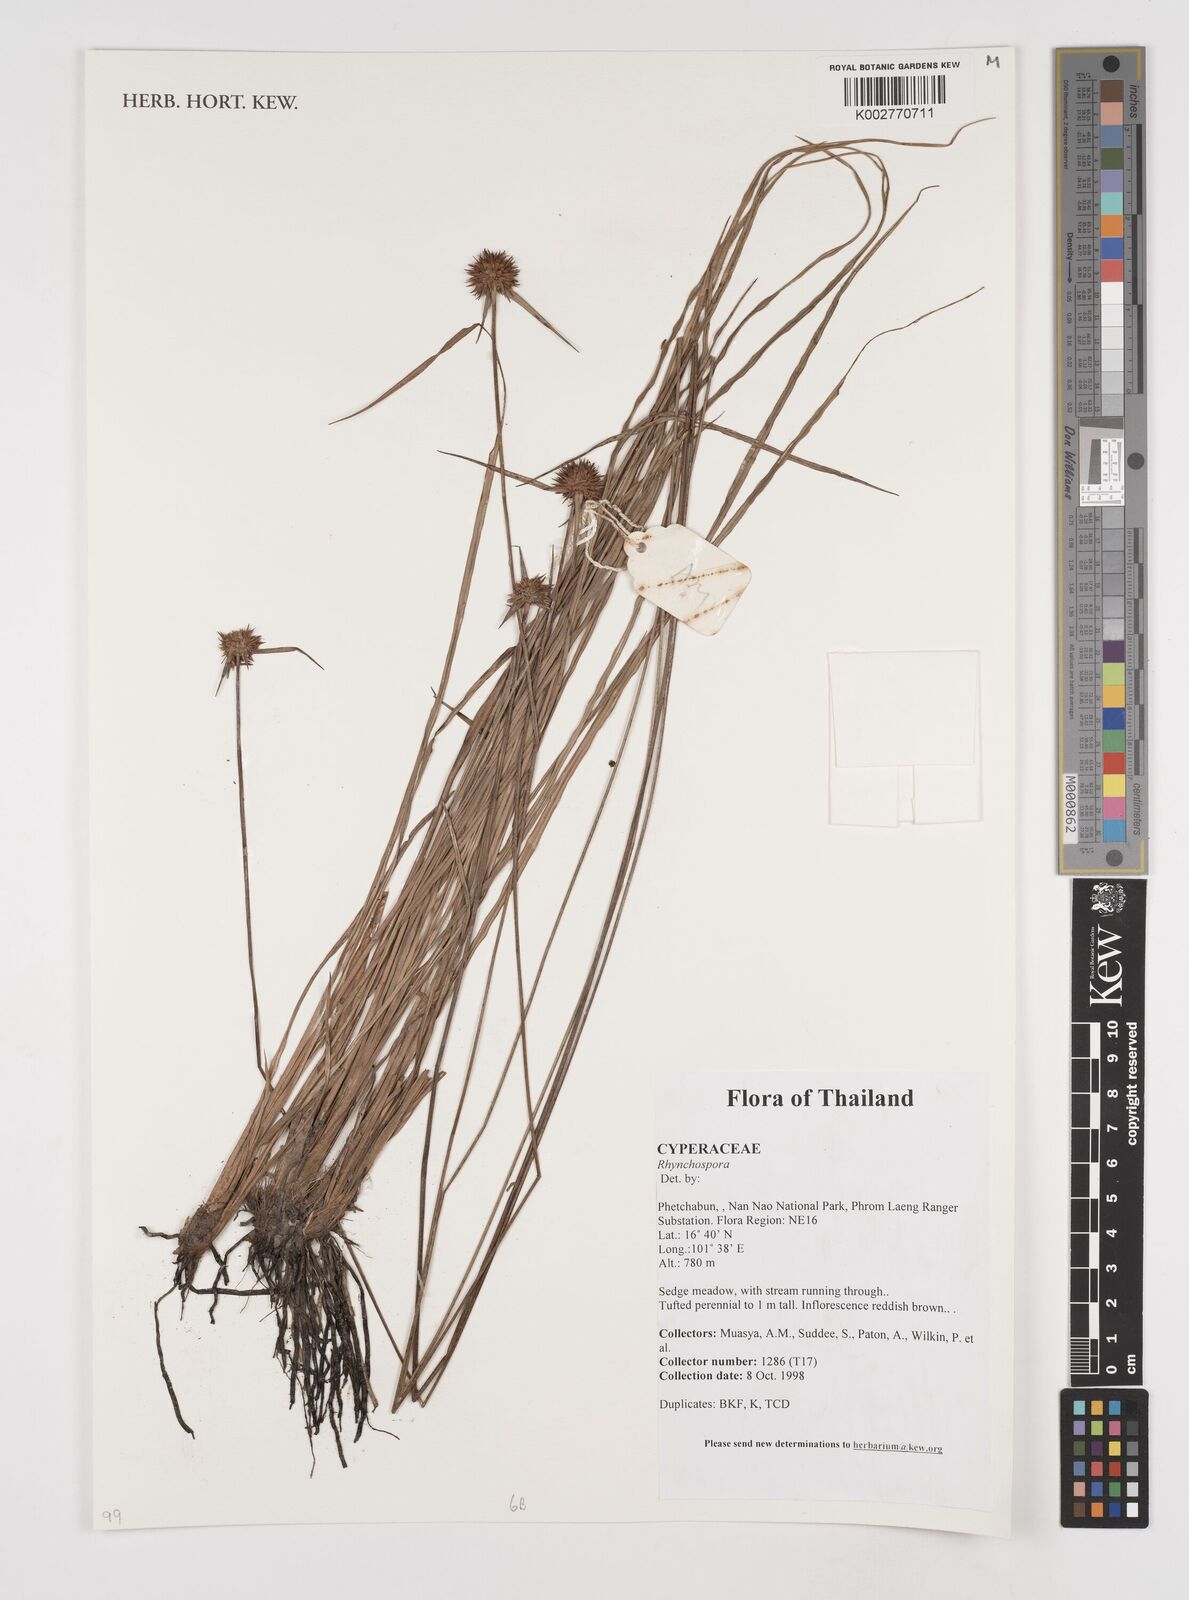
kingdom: Plantae
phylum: Tracheophyta
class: Liliopsida
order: Poales
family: Cyperaceae
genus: Rhynchospora
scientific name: Rhynchospora
